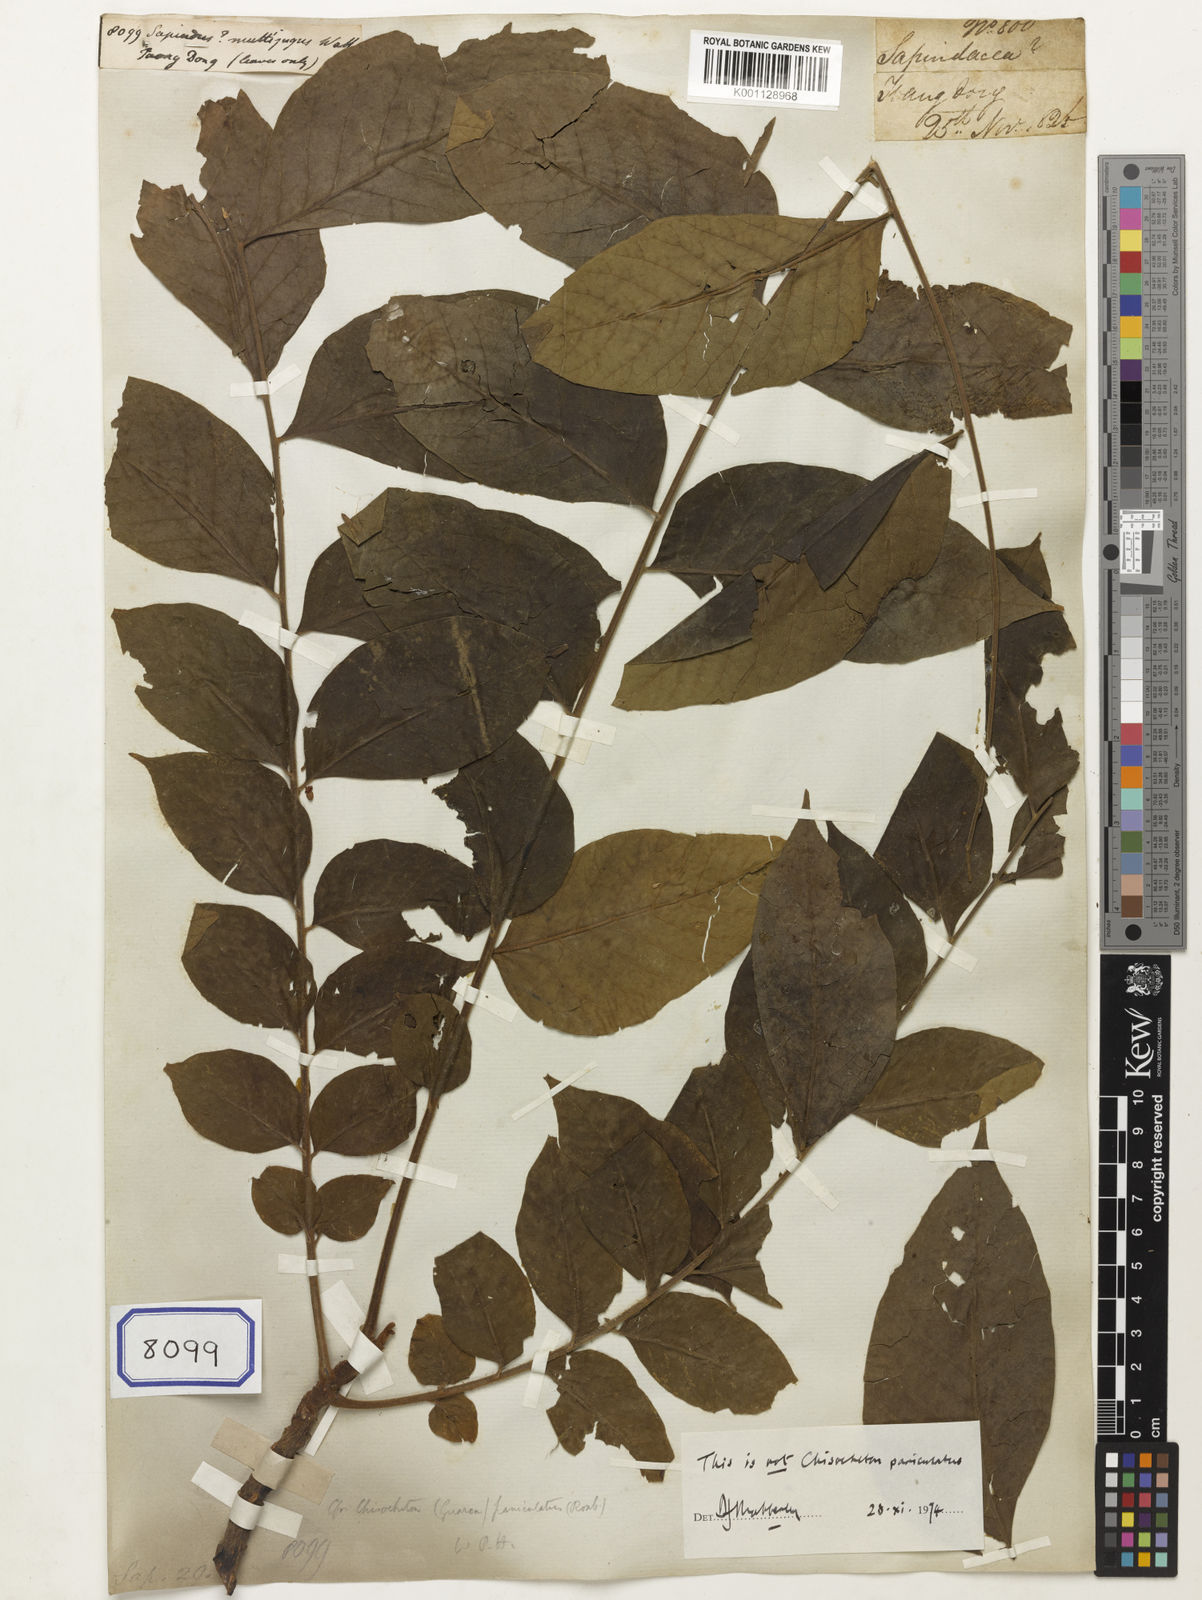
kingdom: Plantae
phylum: Tracheophyta
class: Magnoliopsida
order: Sapindales
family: Meliaceae
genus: Chukrasia
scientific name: Chukrasia tabularis
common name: Chittagong wood
